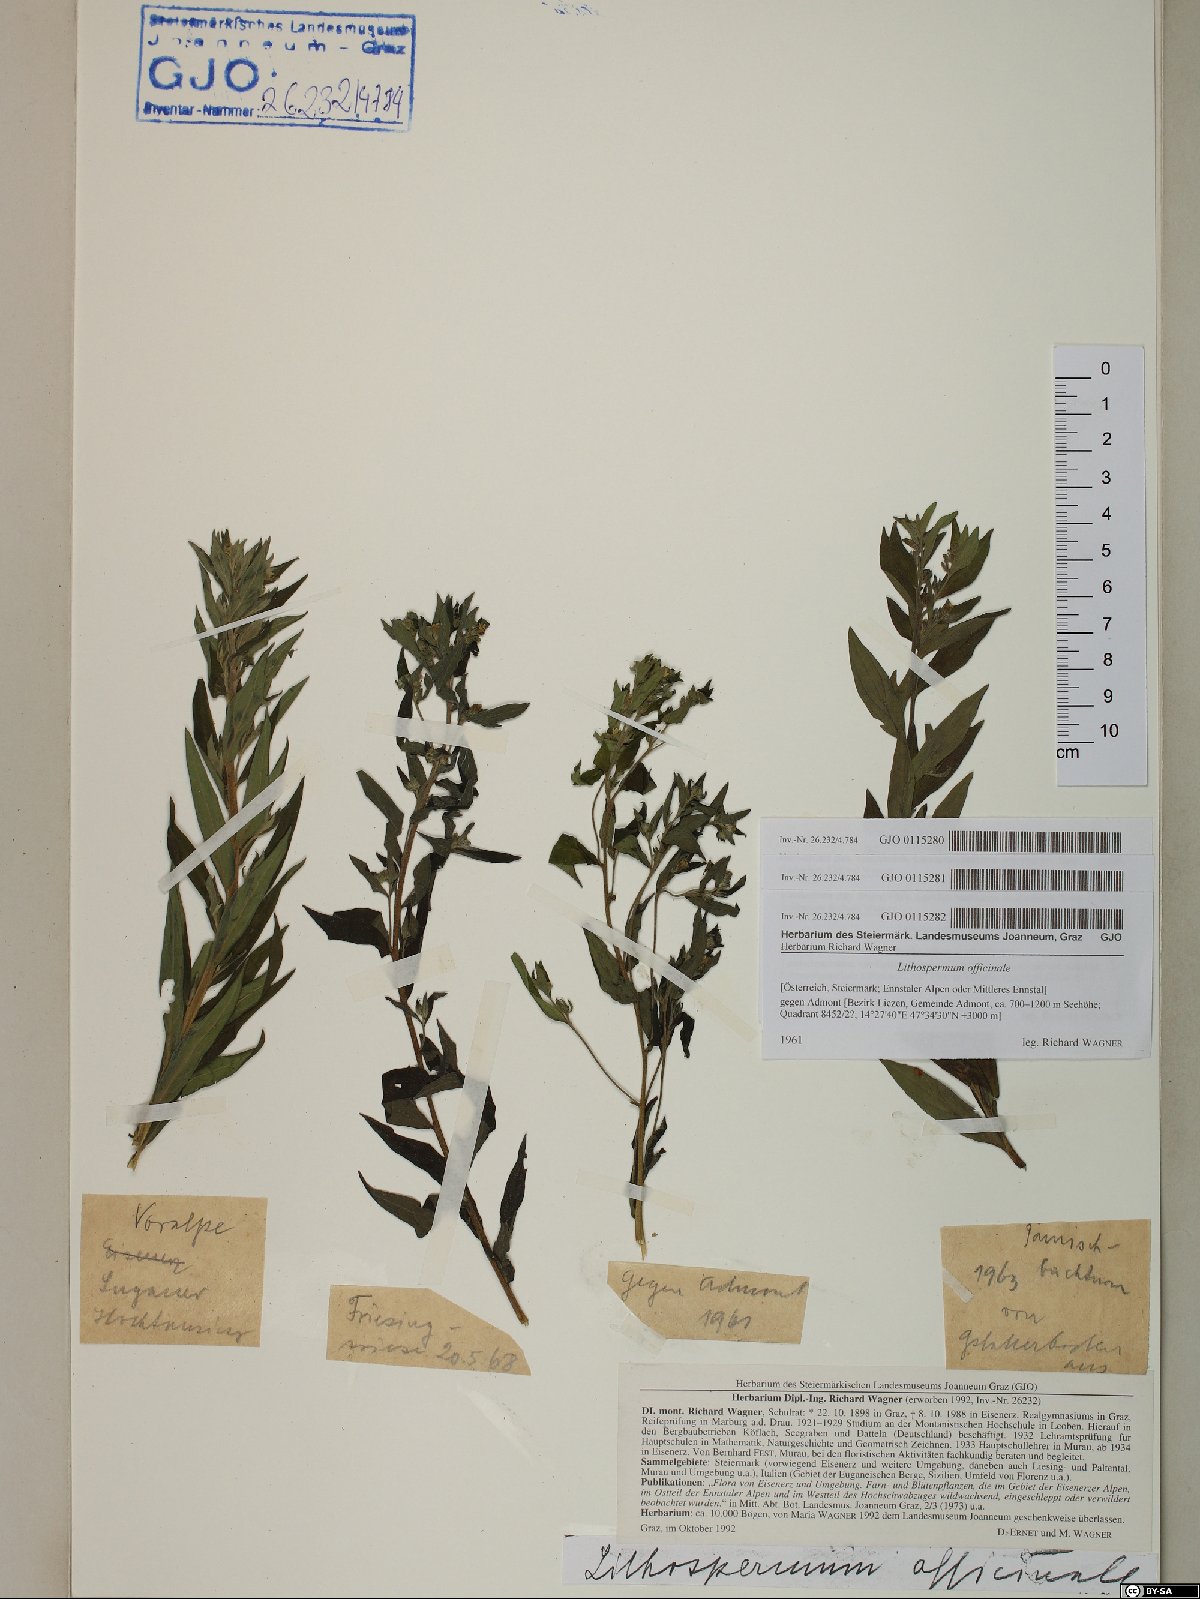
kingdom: Plantae
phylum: Tracheophyta
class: Magnoliopsida
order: Boraginales
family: Boraginaceae
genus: Lithospermum
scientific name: Lithospermum officinale
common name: Common gromwell
